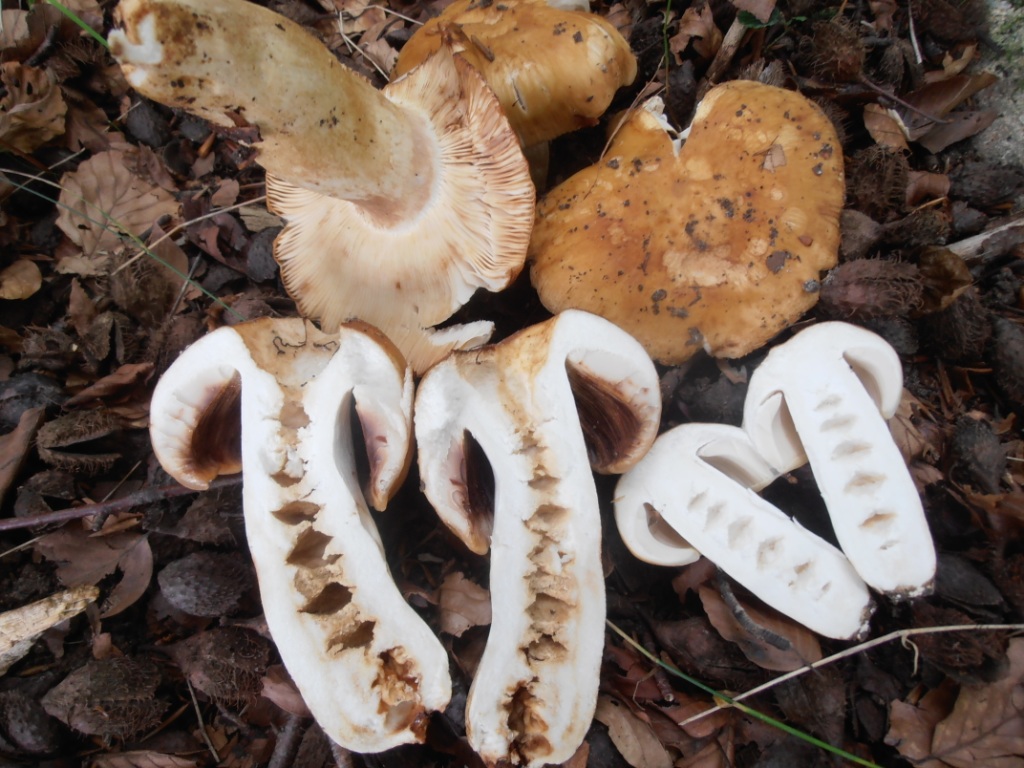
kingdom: Fungi
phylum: Basidiomycota
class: Agaricomycetes
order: Russulales
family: Russulaceae
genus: Russula
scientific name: Russula foetens
